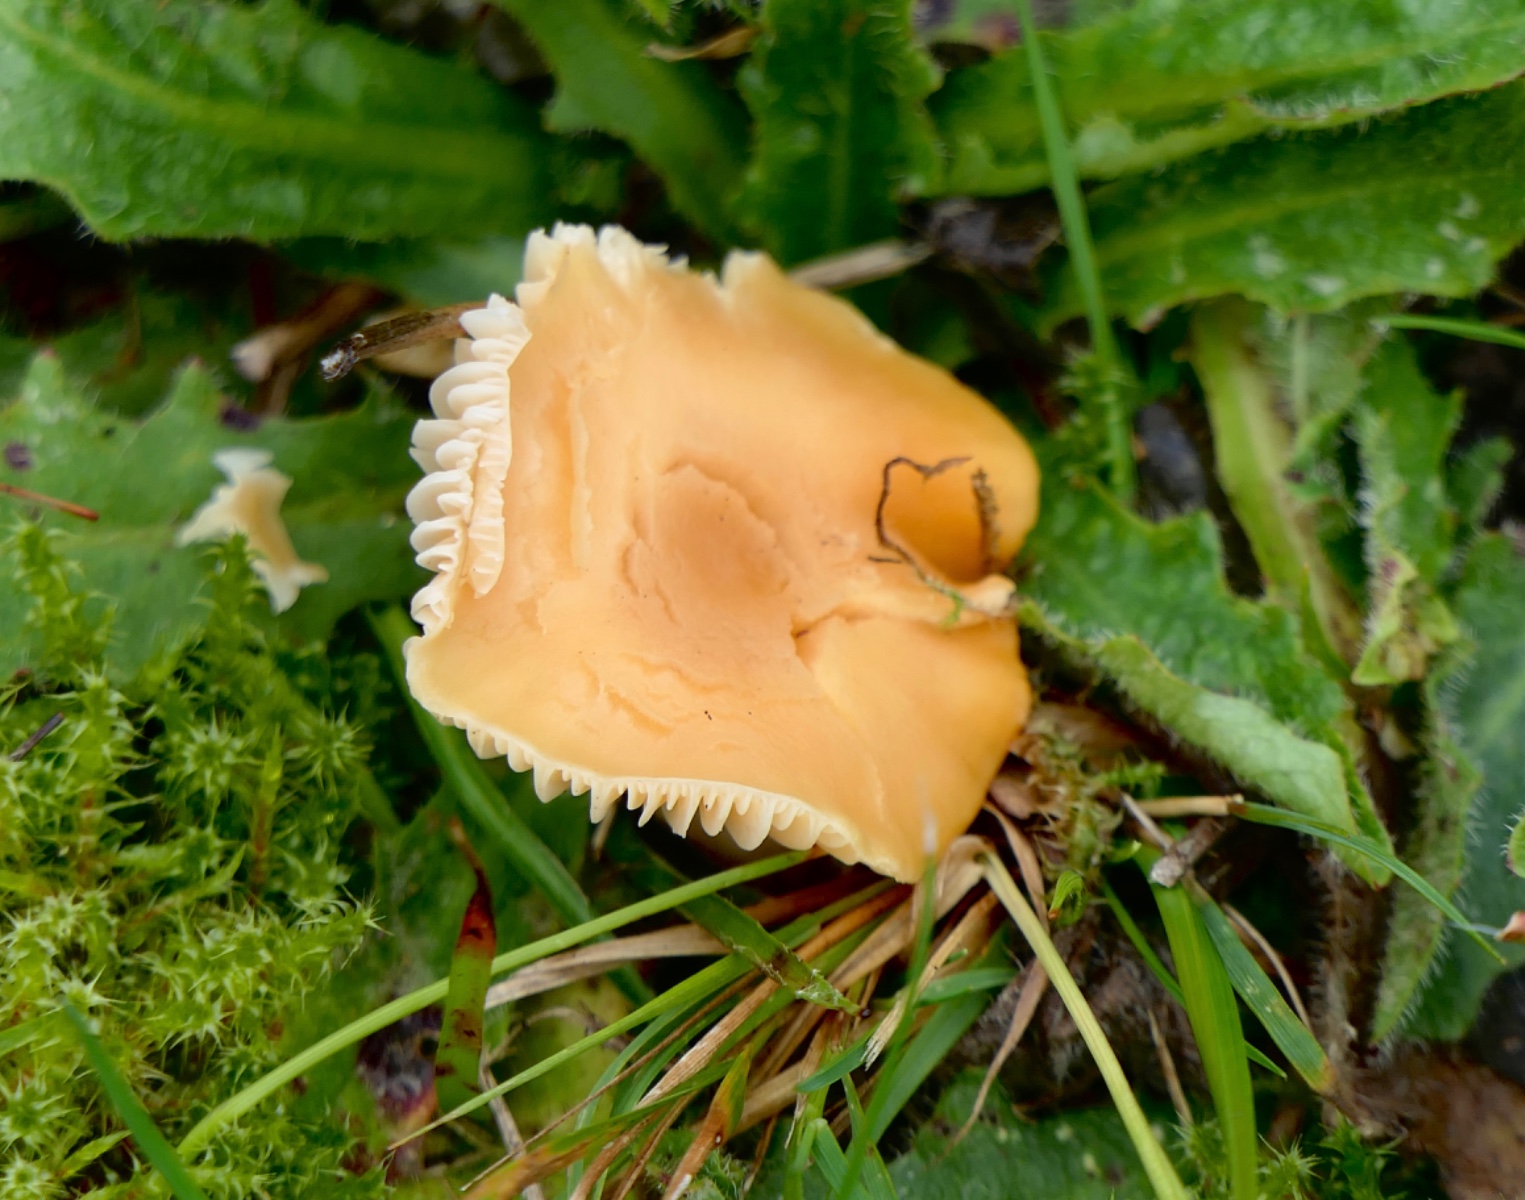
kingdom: Fungi
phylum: Basidiomycota
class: Agaricomycetes
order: Agaricales
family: Hygrophoraceae
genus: Cuphophyllus
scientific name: Cuphophyllus pratensis
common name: eng-vokshat
